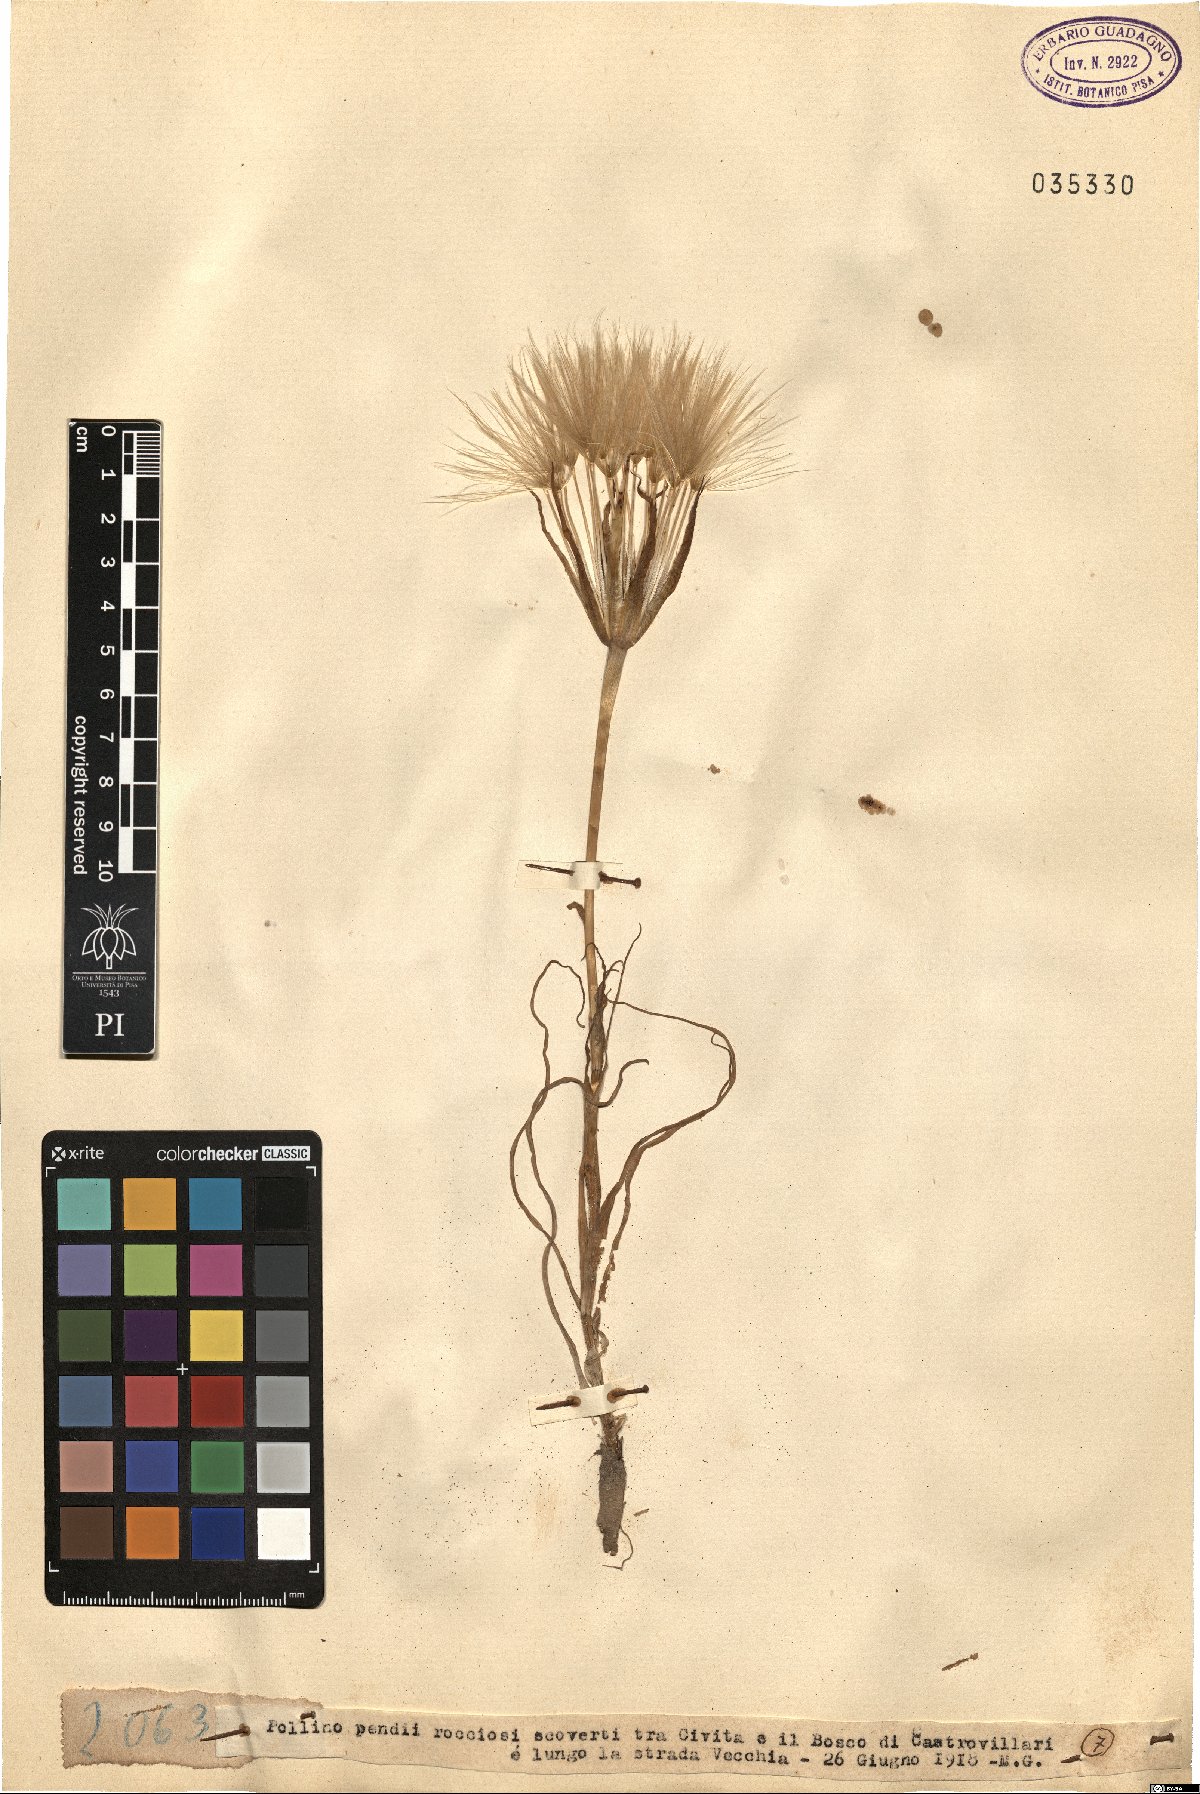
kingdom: Plantae
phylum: Tracheophyta
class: Magnoliopsida
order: Asterales
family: Asteraceae
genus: Geropogon
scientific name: Geropogon
